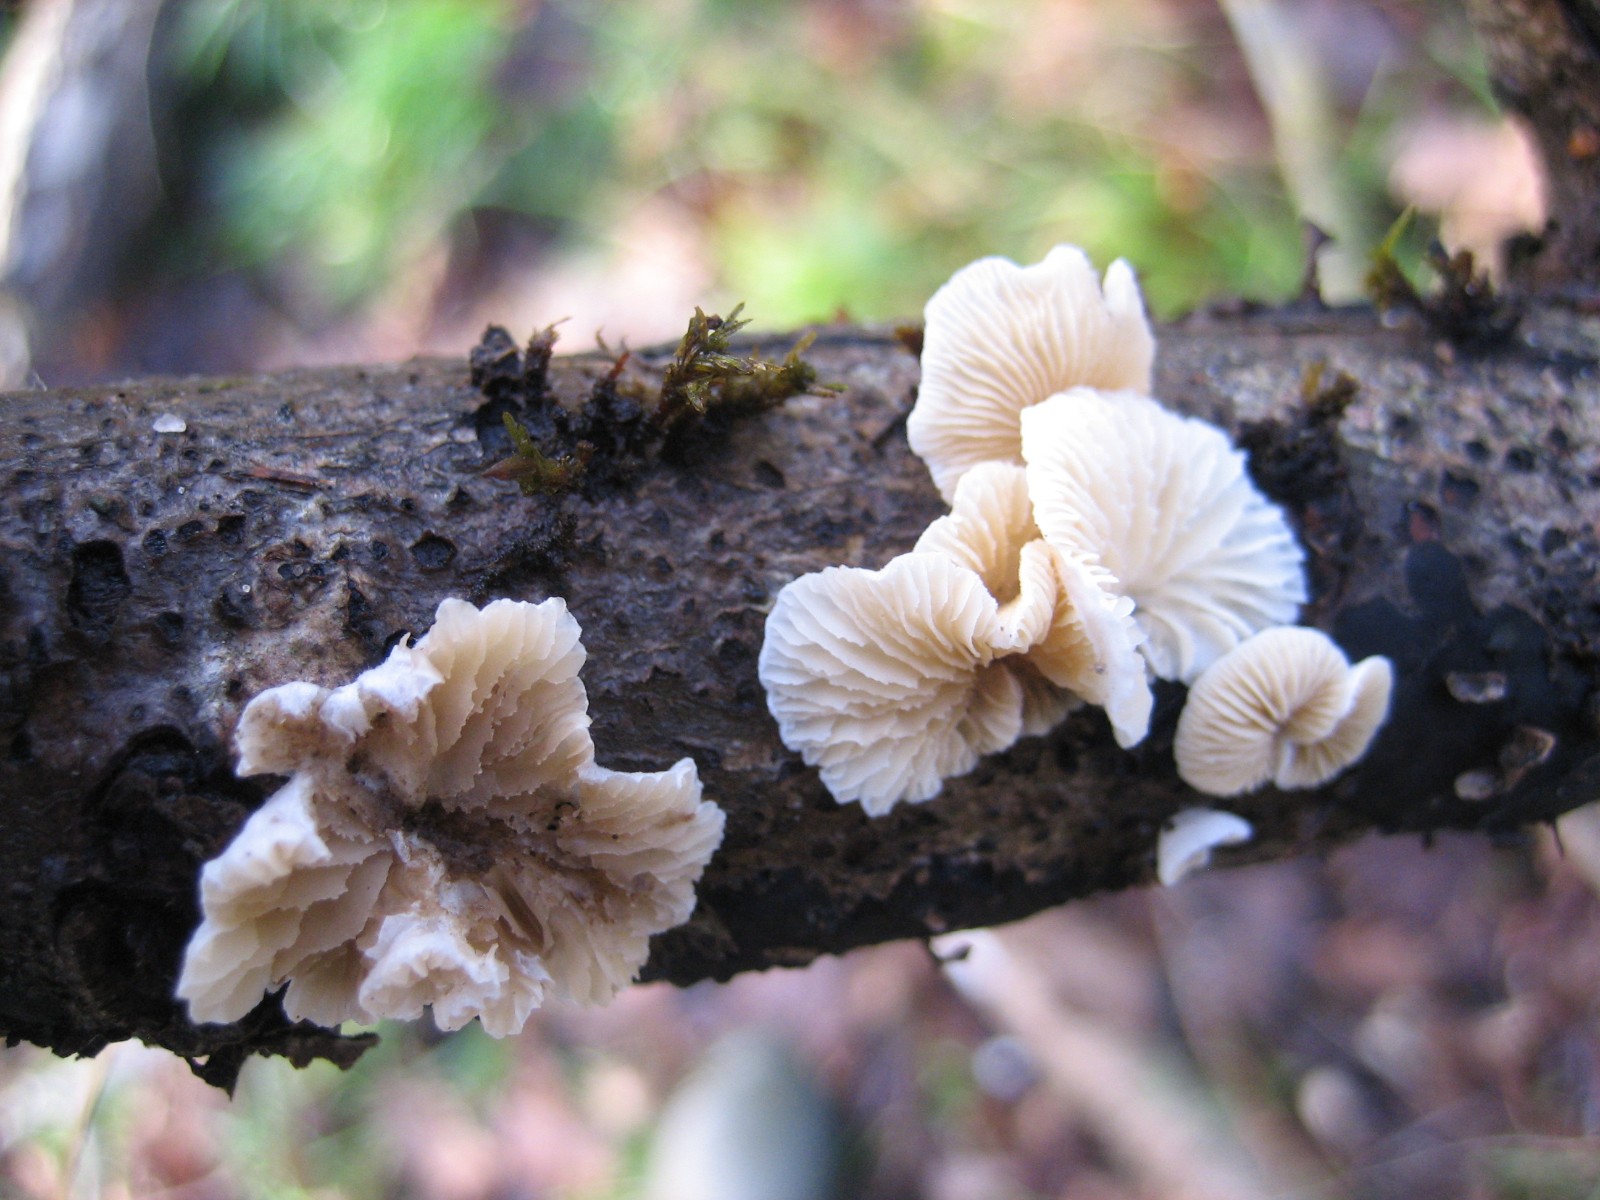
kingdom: Fungi
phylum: Basidiomycota
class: Agaricomycetes
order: Agaricales
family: Crepidotaceae
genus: Crepidotus
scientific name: Crepidotus
